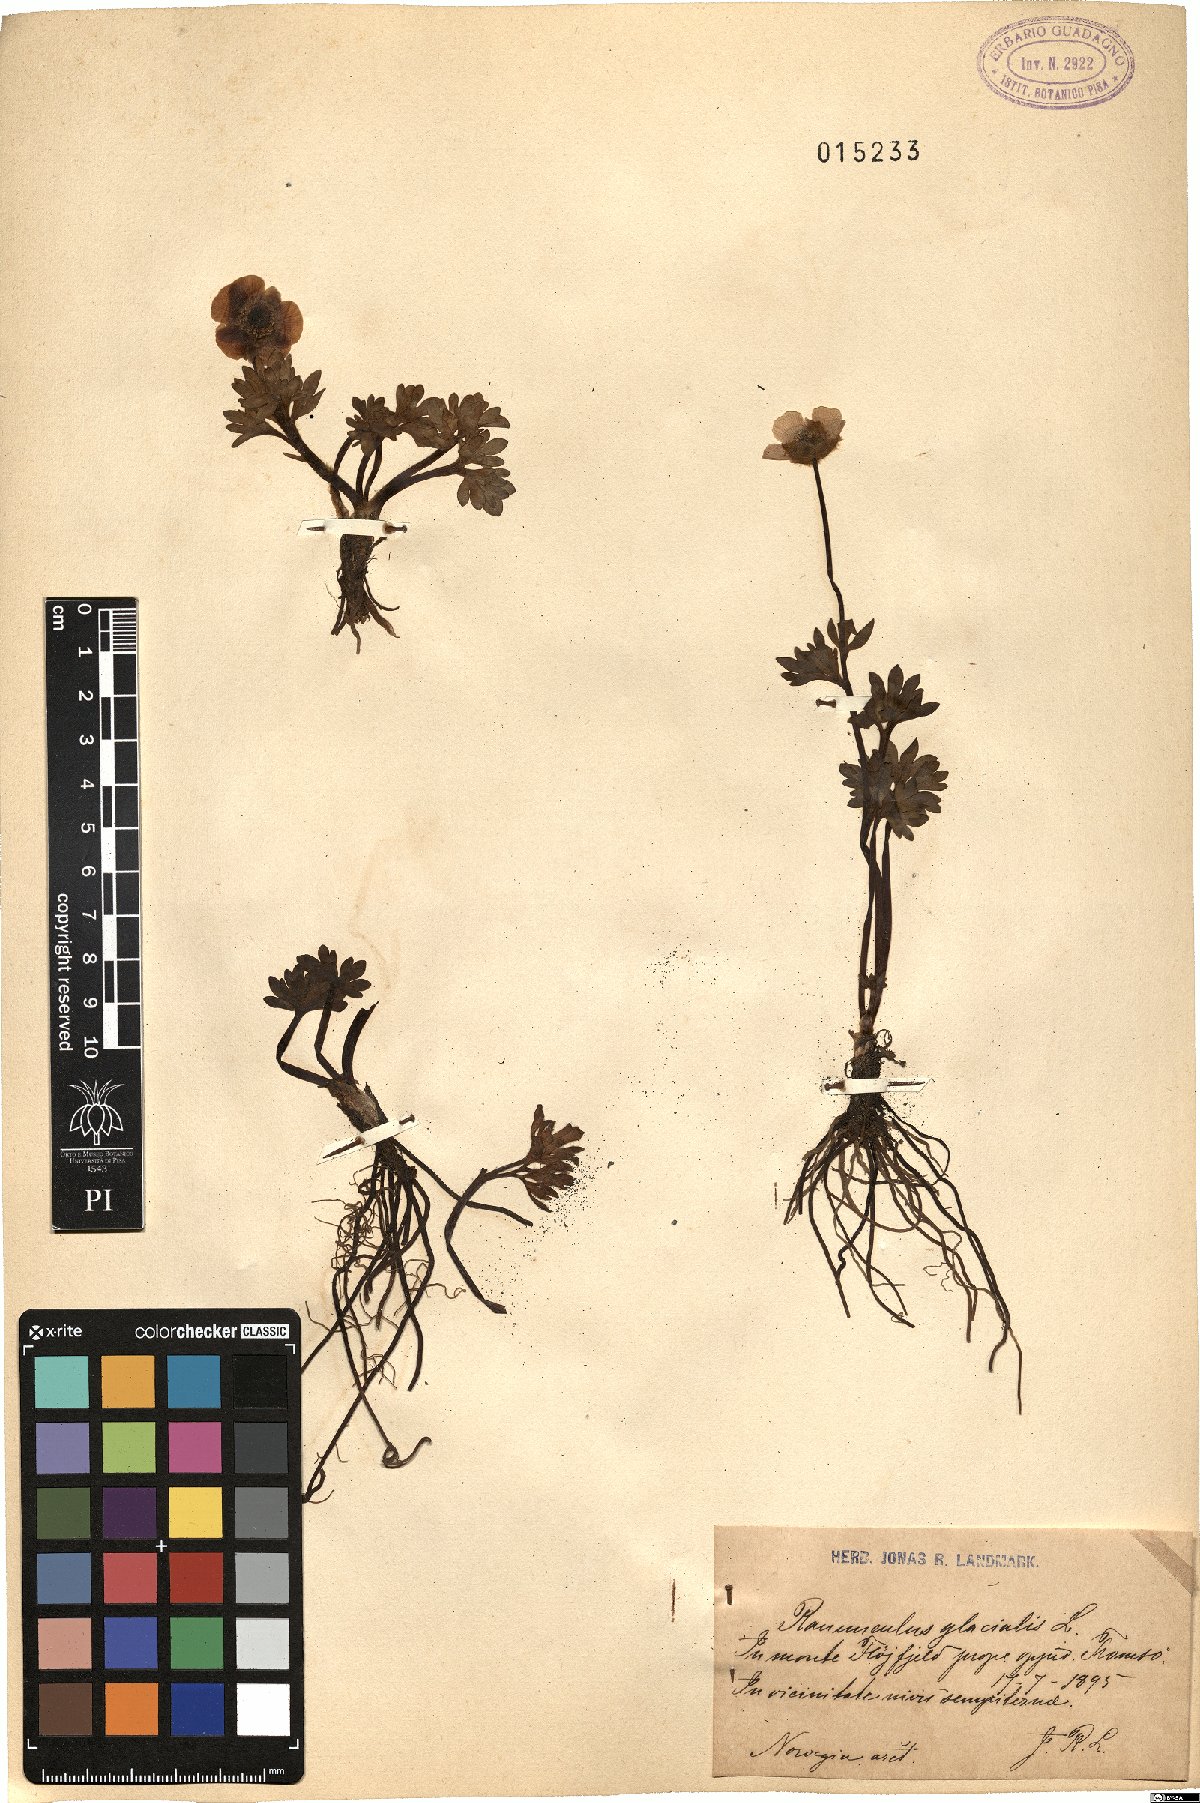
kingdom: Plantae
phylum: Tracheophyta
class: Magnoliopsida
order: Ranunculales
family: Ranunculaceae
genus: Ranunculus
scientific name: Ranunculus glacialis
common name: Glacier buttercup
